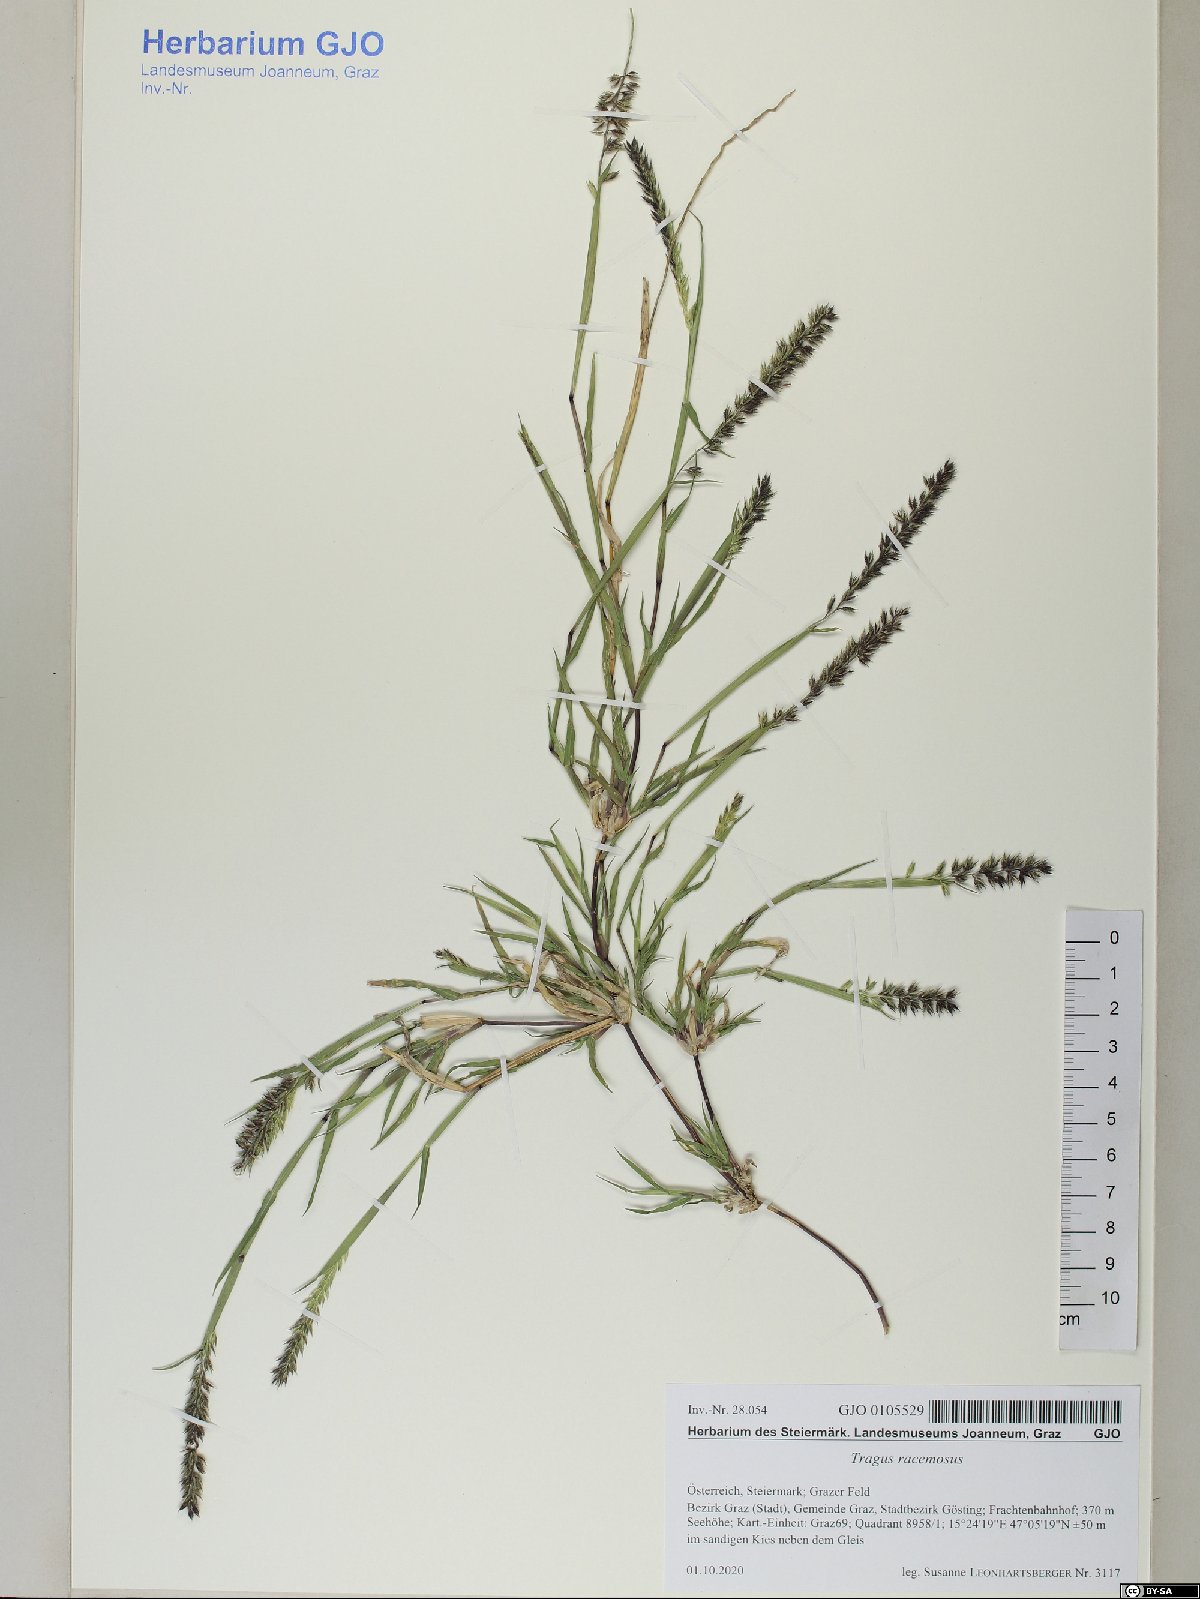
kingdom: Plantae
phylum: Tracheophyta
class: Liliopsida
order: Poales
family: Poaceae
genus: Tragus
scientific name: Tragus racemosus
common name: European bur-grass
